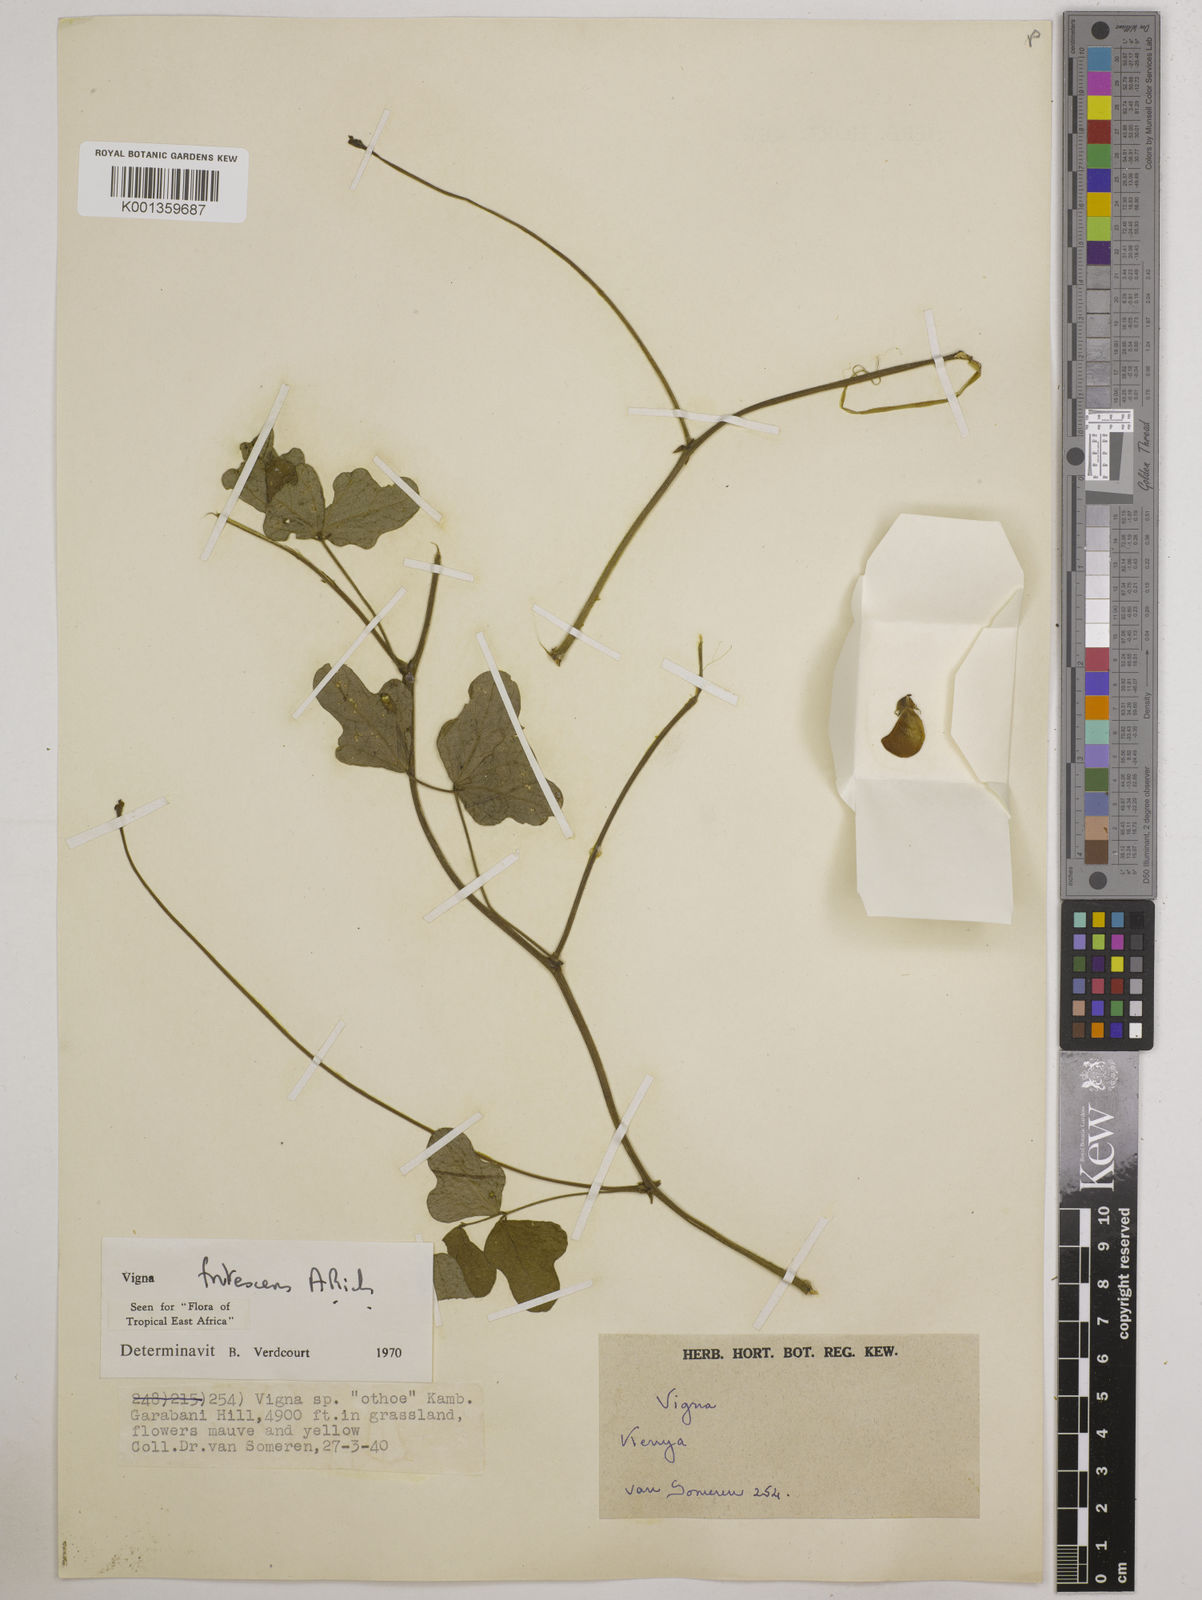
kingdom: Plantae
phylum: Tracheophyta
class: Magnoliopsida
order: Fabales
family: Fabaceae
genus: Vigna
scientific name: Vigna frutescens
